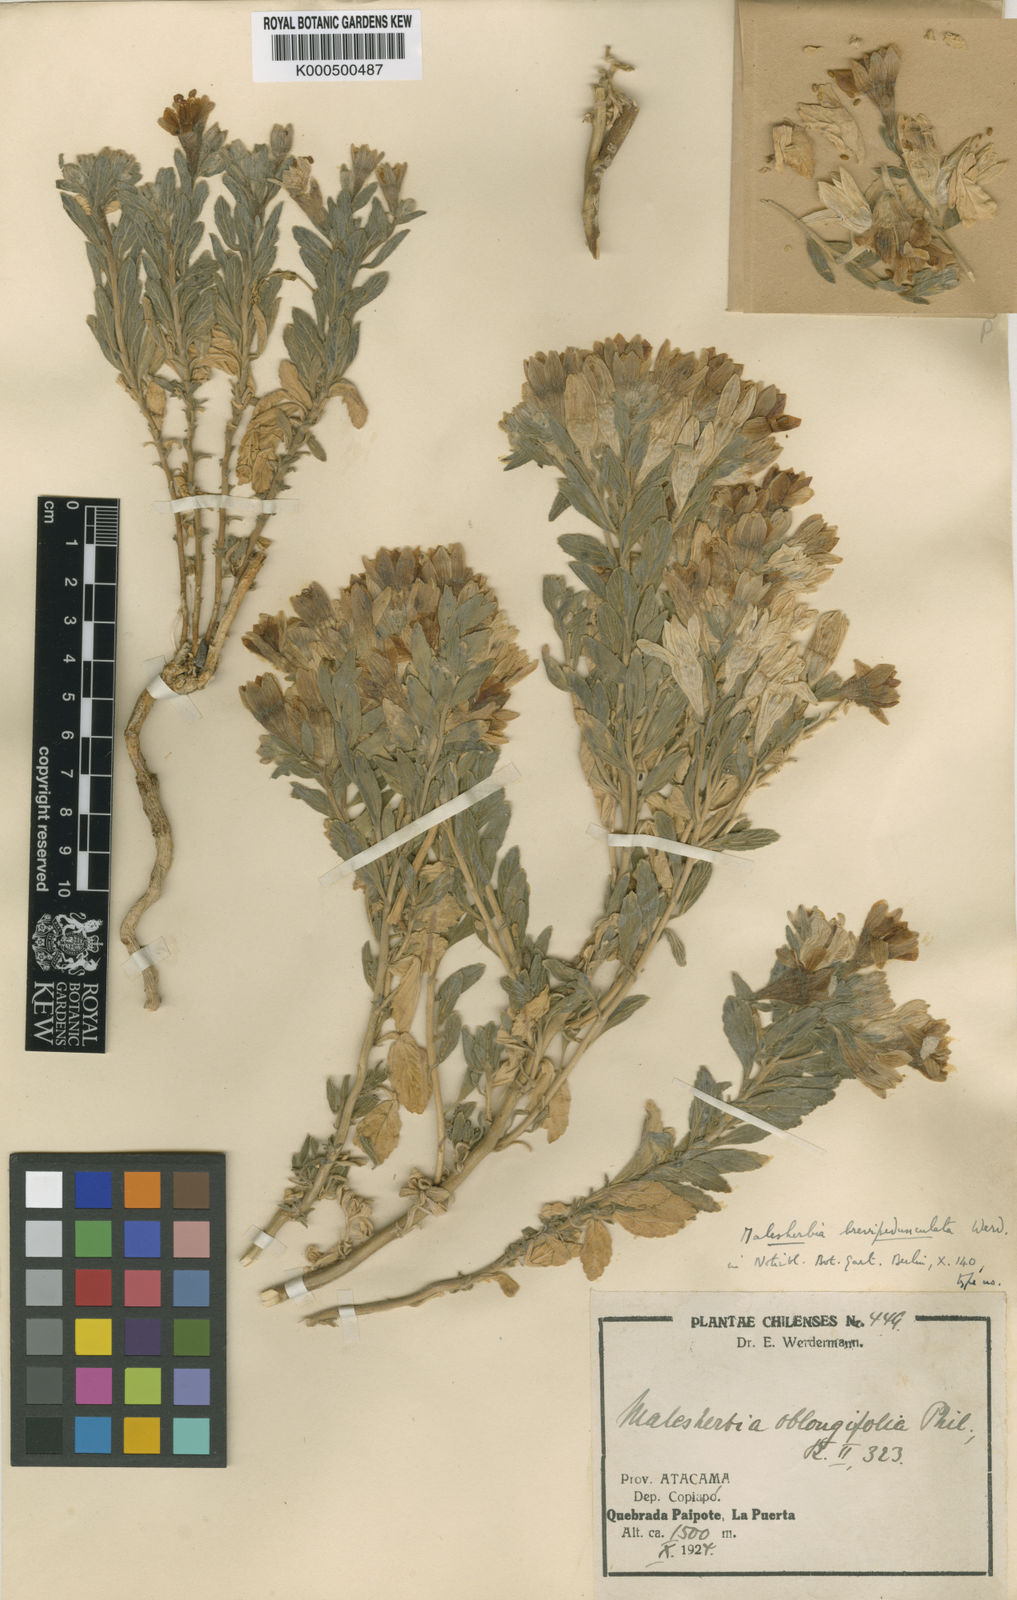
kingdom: Plantae
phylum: Tracheophyta
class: Magnoliopsida
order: Malpighiales
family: Malesherbiaceae
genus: Malesherbia
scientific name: Malesherbia solanoides
